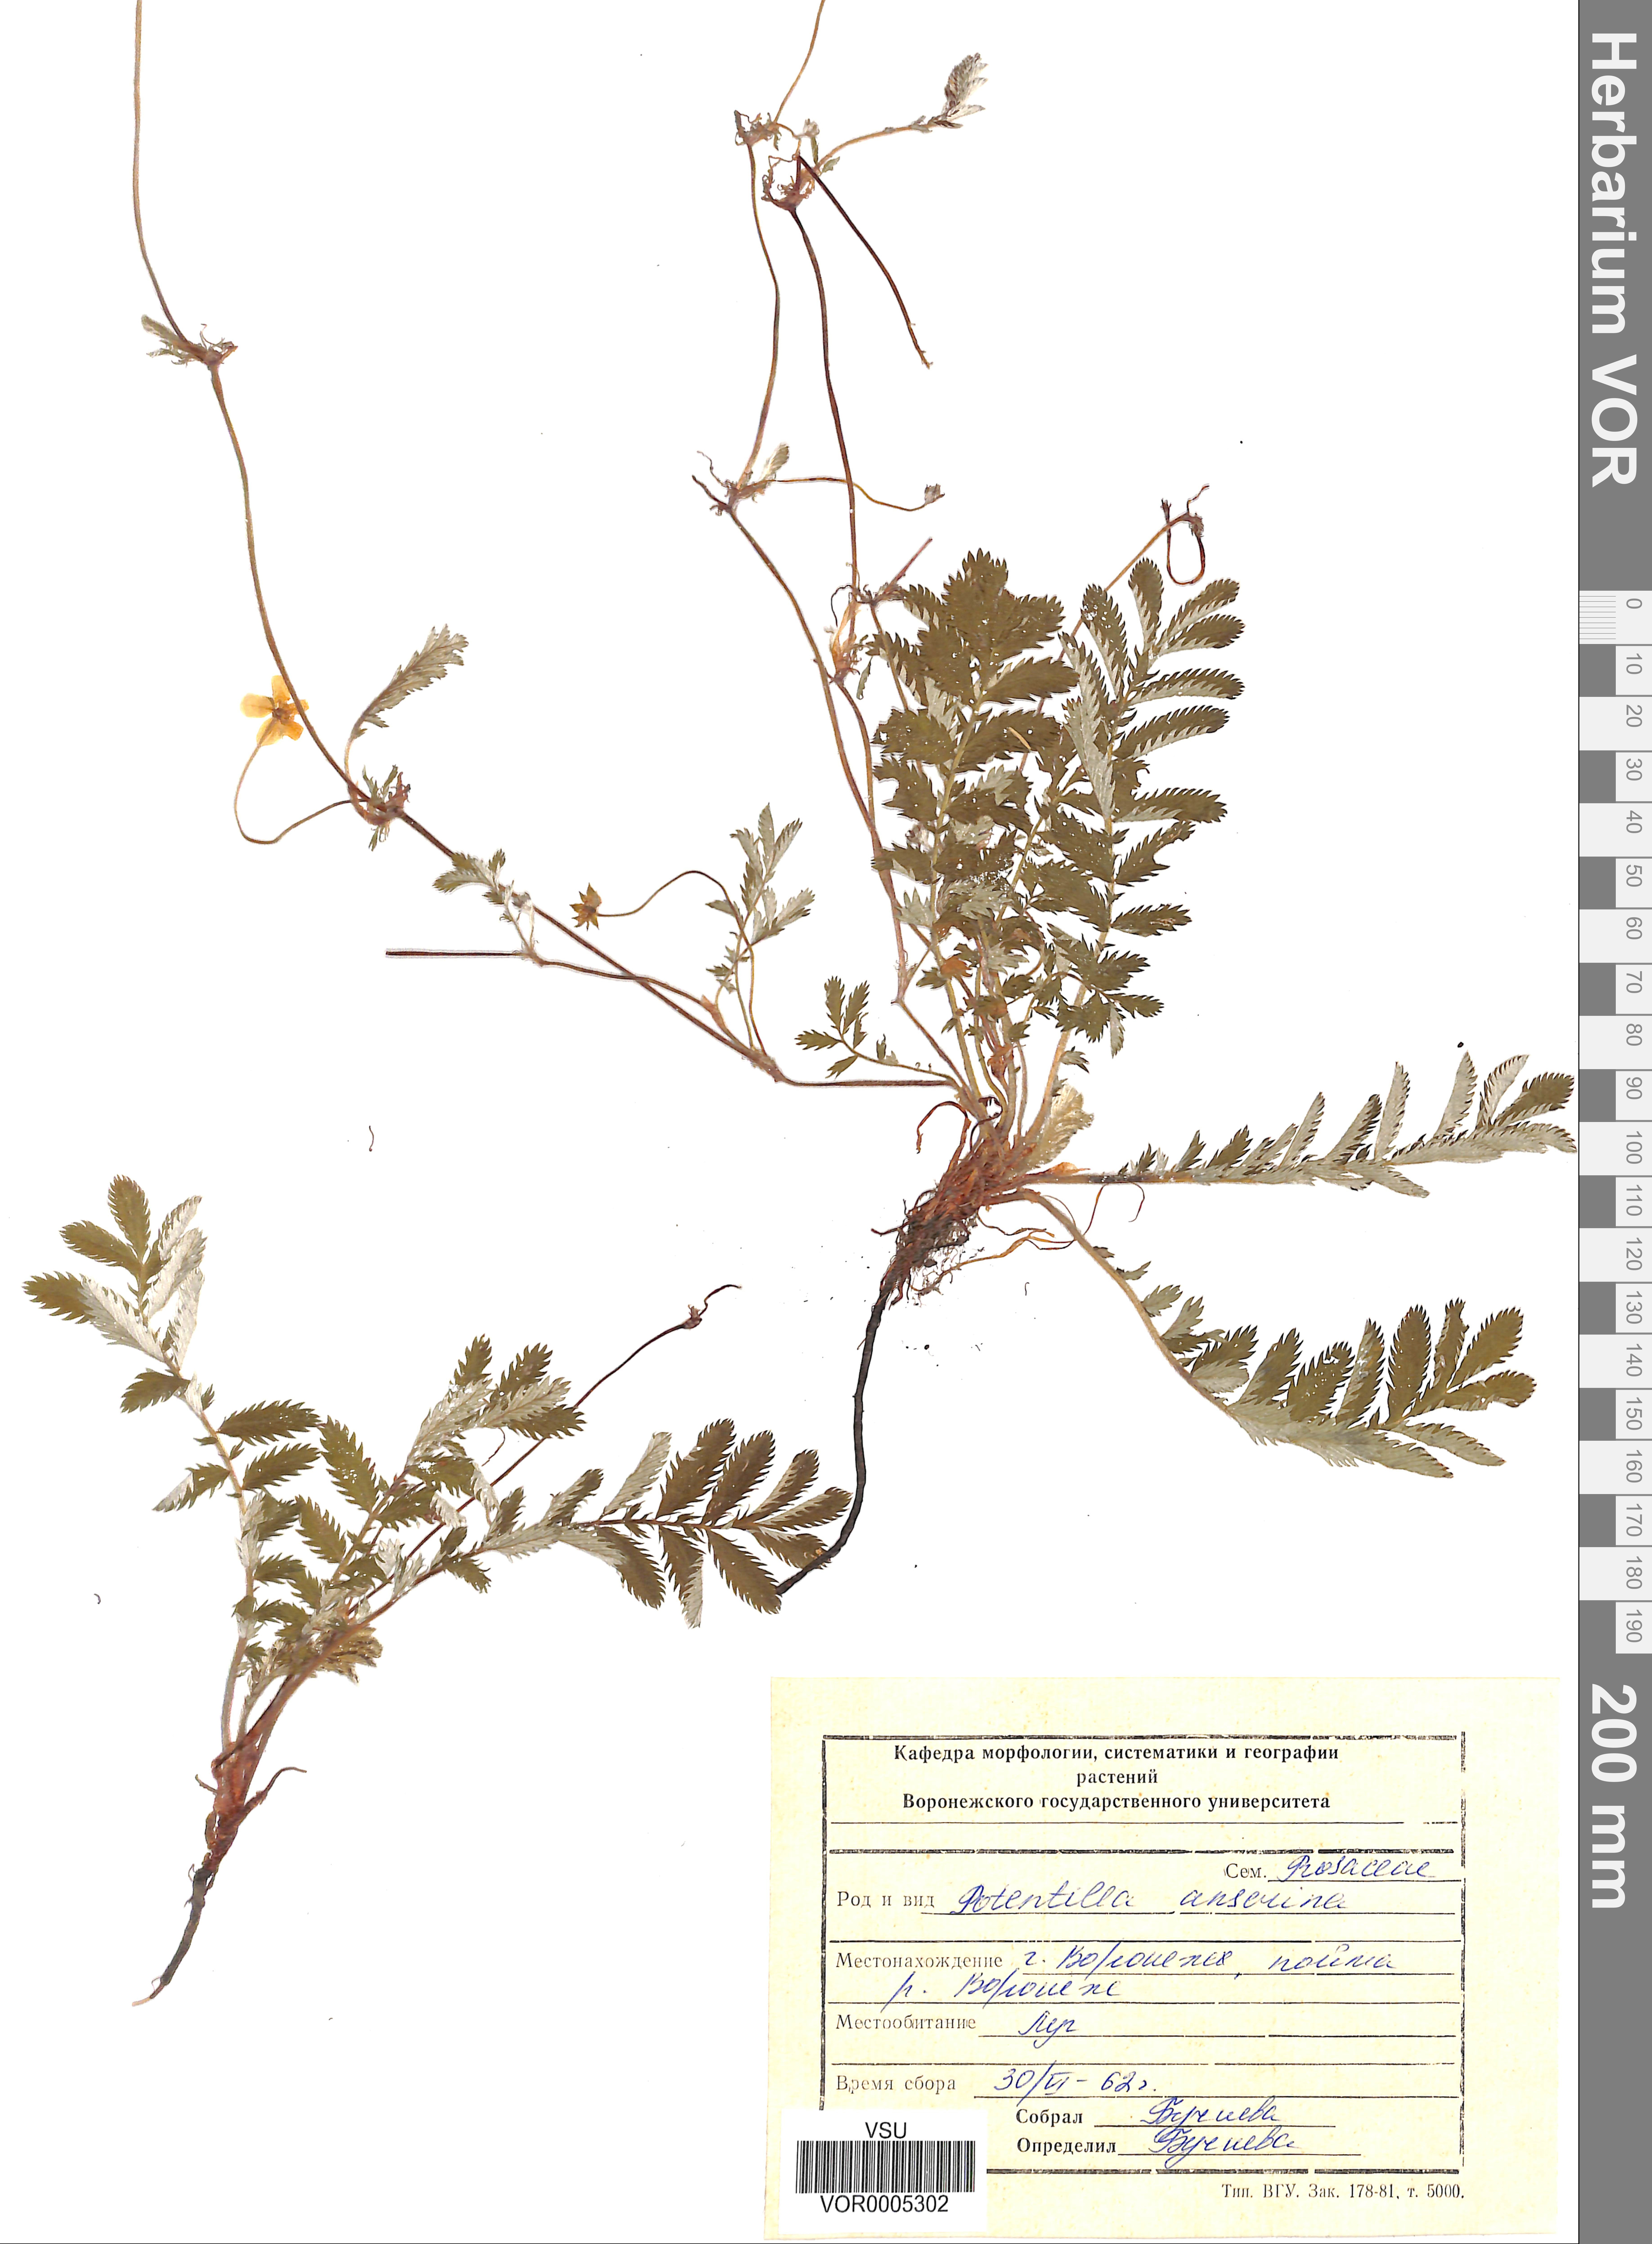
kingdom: Plantae
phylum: Tracheophyta
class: Magnoliopsida
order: Rosales
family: Rosaceae
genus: Argentina
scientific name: Argentina anserina
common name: Common silverweed
